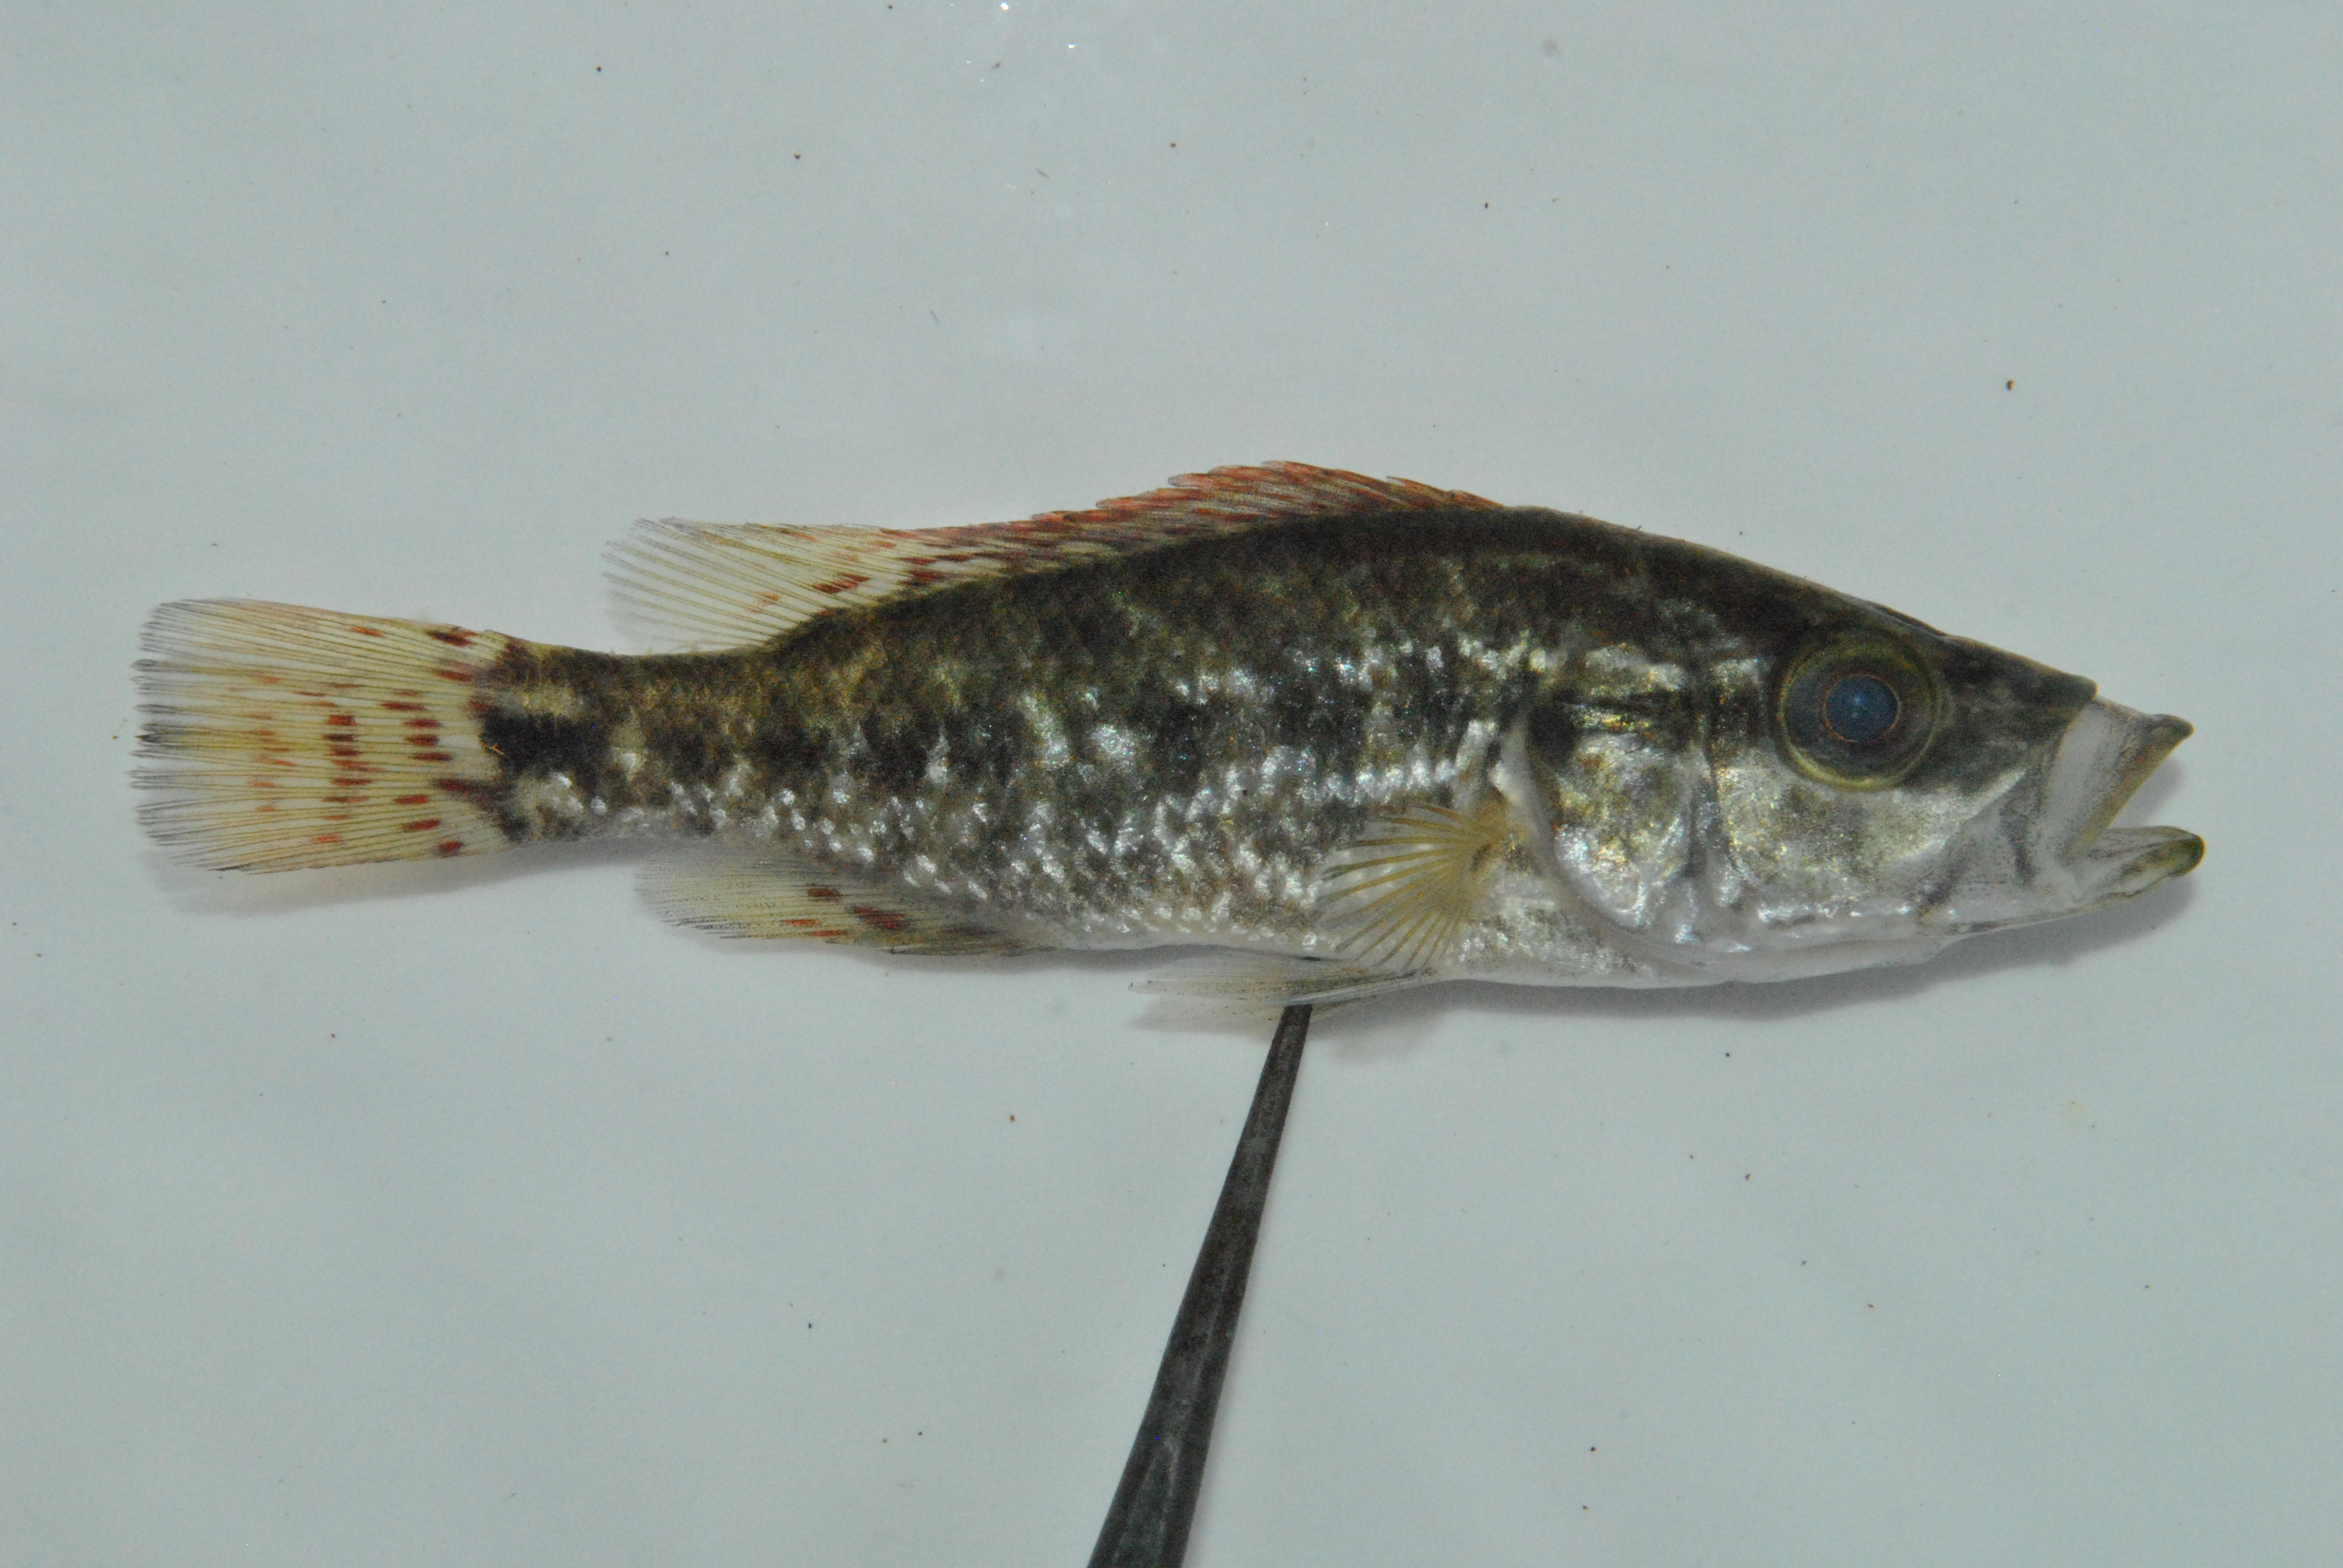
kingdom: Animalia
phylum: Chordata
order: Perciformes
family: Cichlidae
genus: Serranochromis
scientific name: Serranochromis angusticeps
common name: Thinface largemouth
